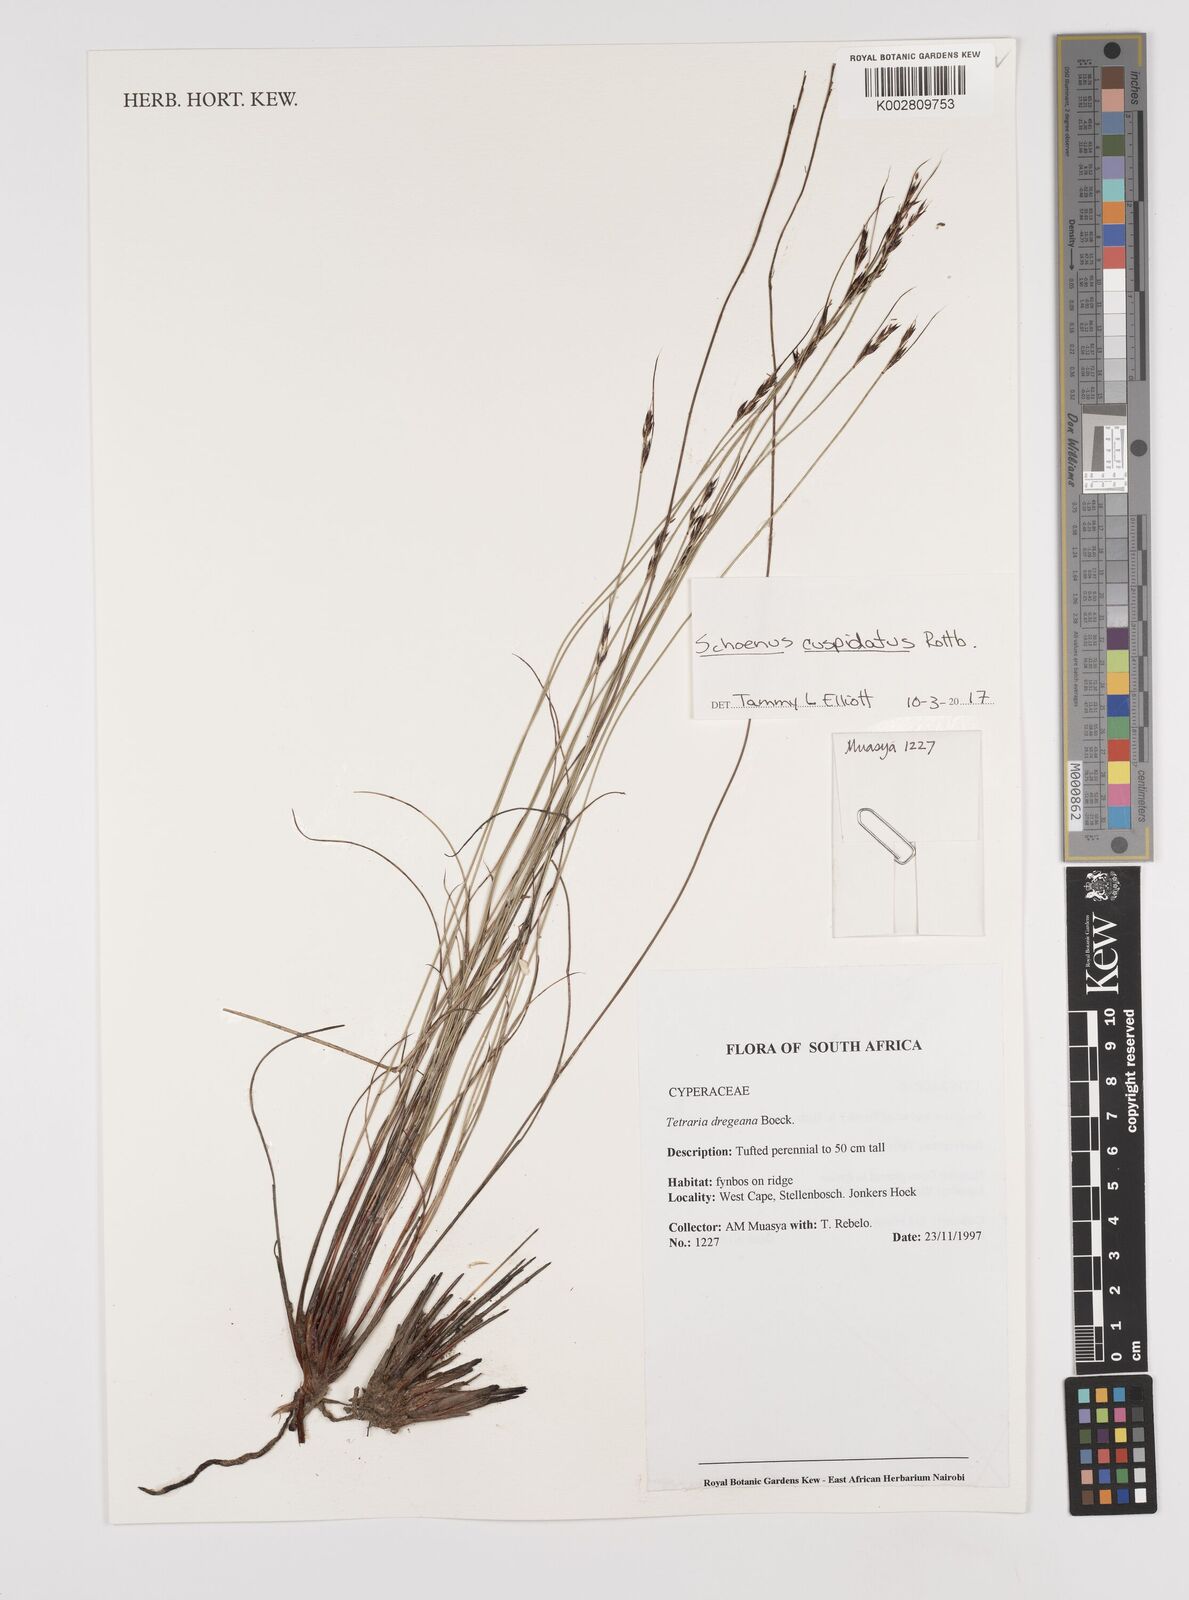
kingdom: Plantae
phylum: Tracheophyta
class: Liliopsida
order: Poales
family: Cyperaceae
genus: Schoenus
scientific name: Schoenus cuspidatus
